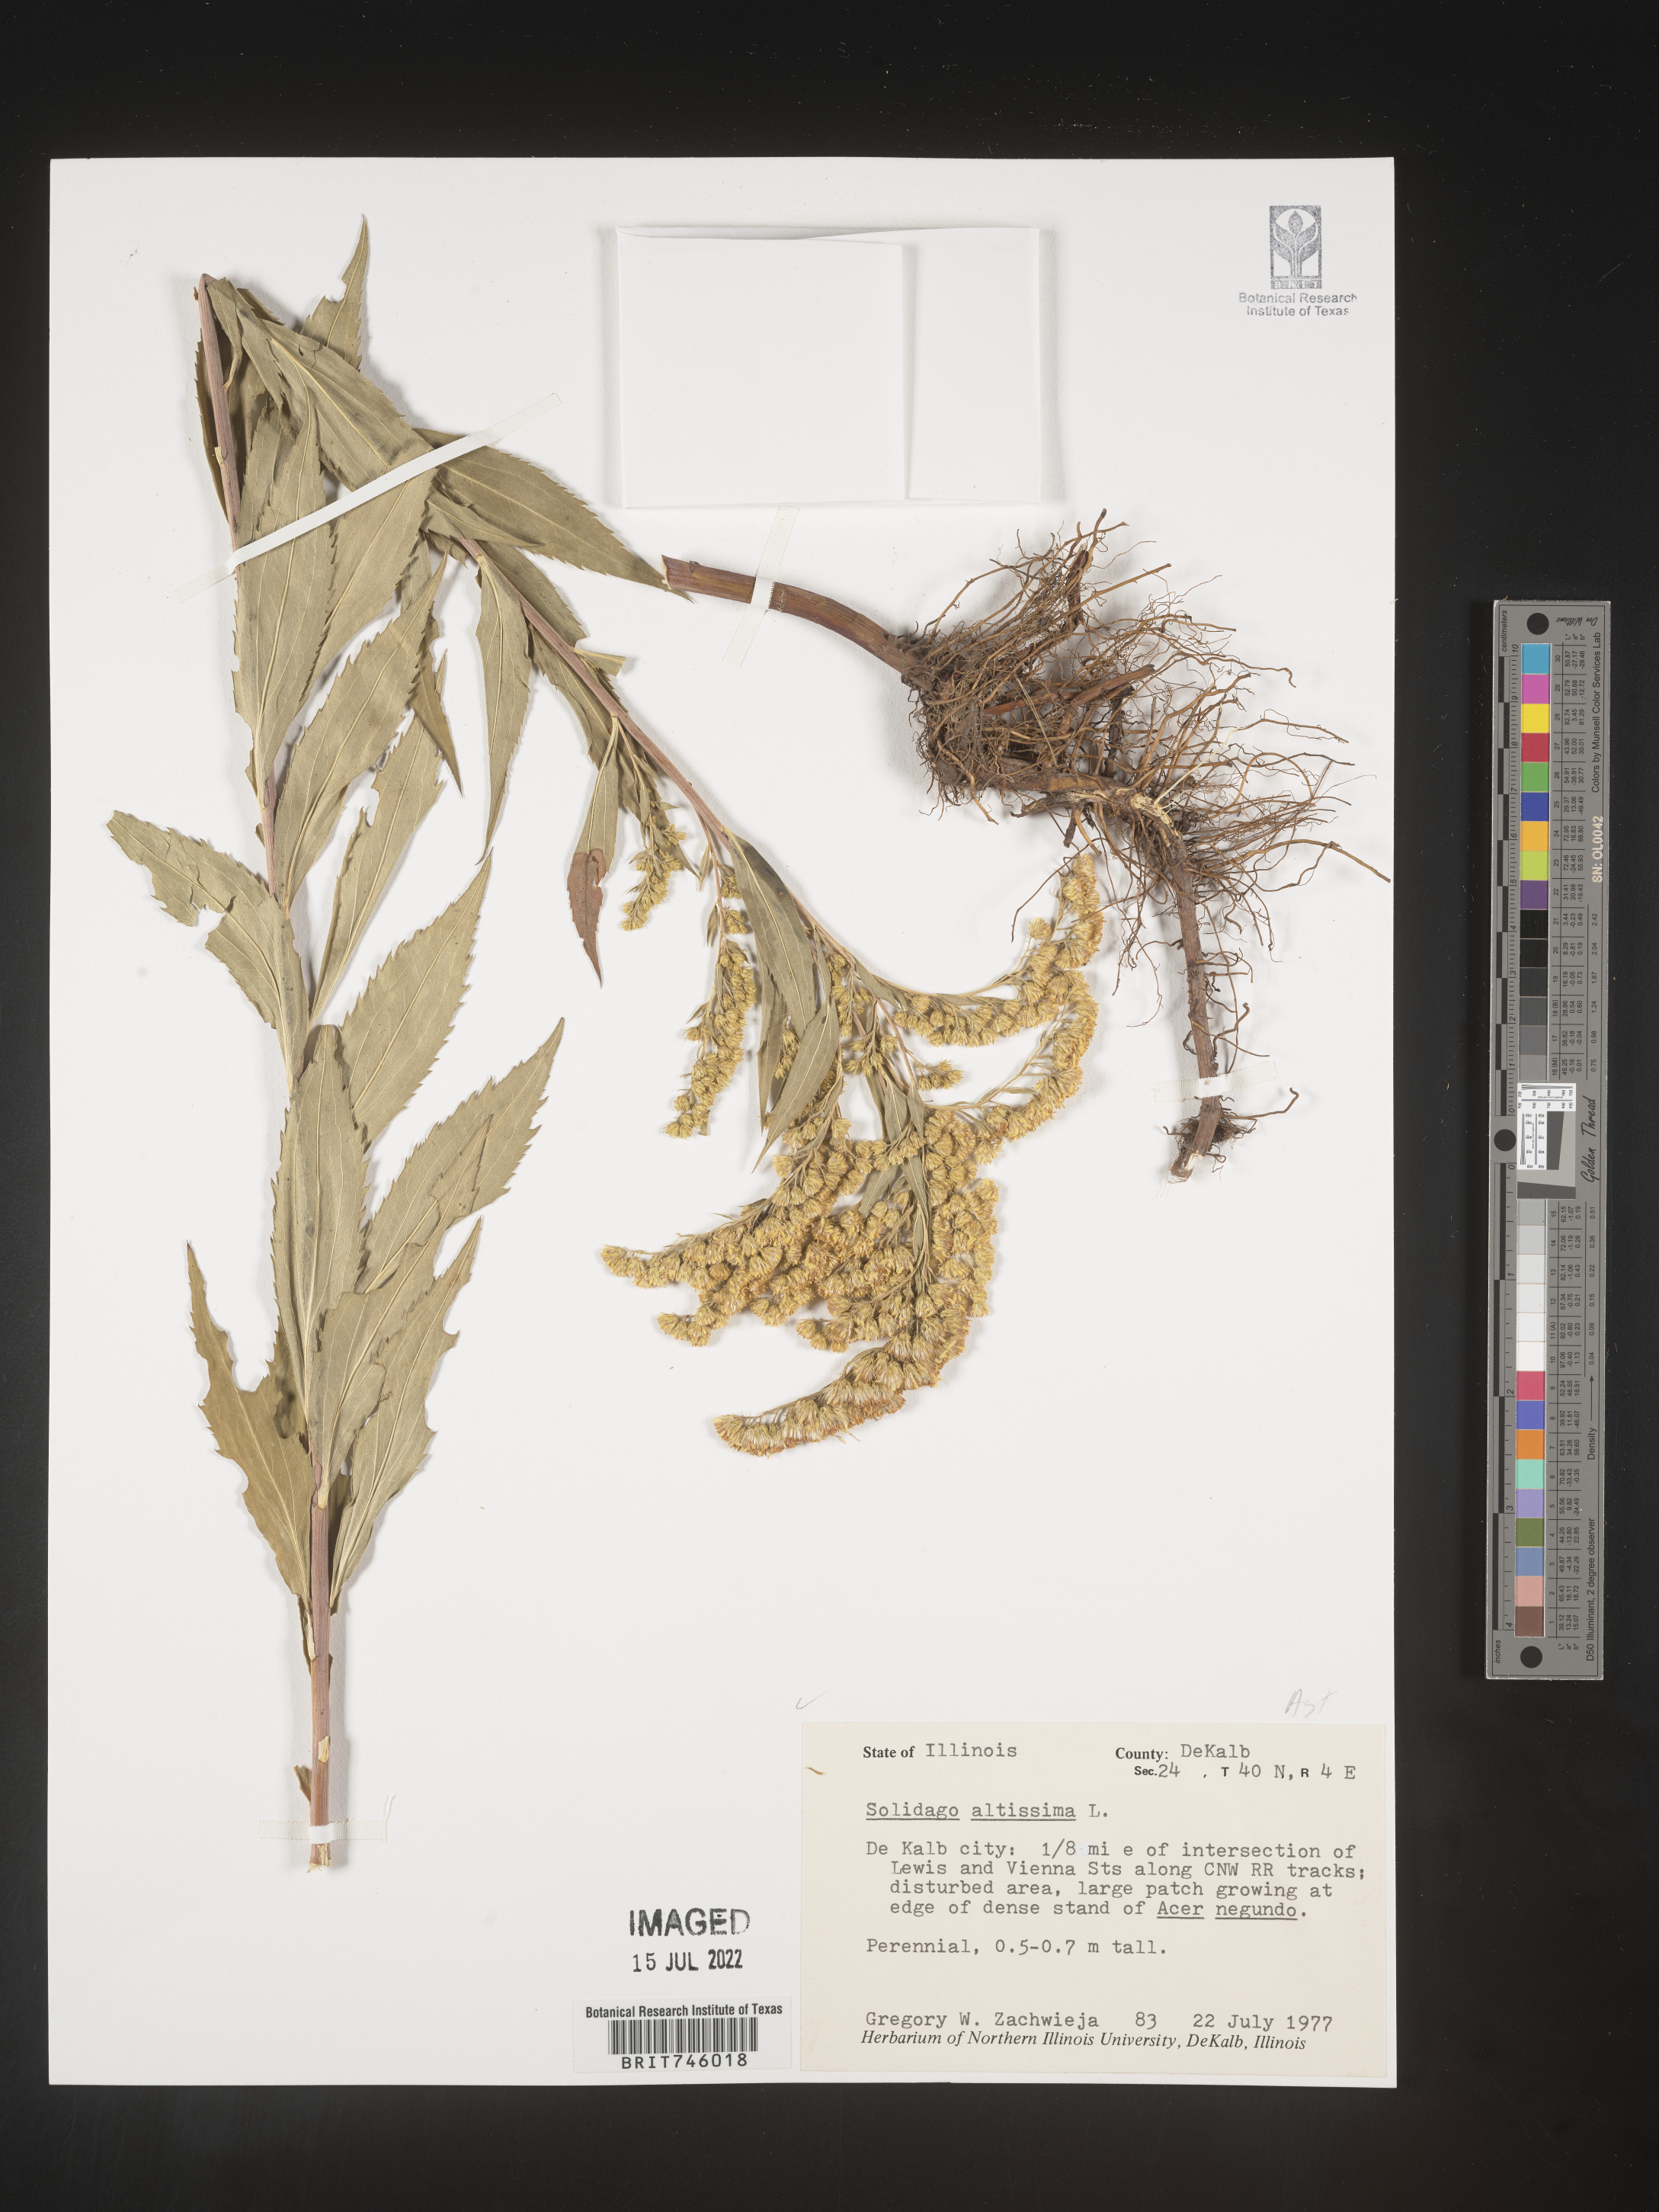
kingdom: Plantae
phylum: Tracheophyta
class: Magnoliopsida
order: Asterales
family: Asteraceae
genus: Solidago
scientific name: Solidago canadensis
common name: Canada goldenrod
